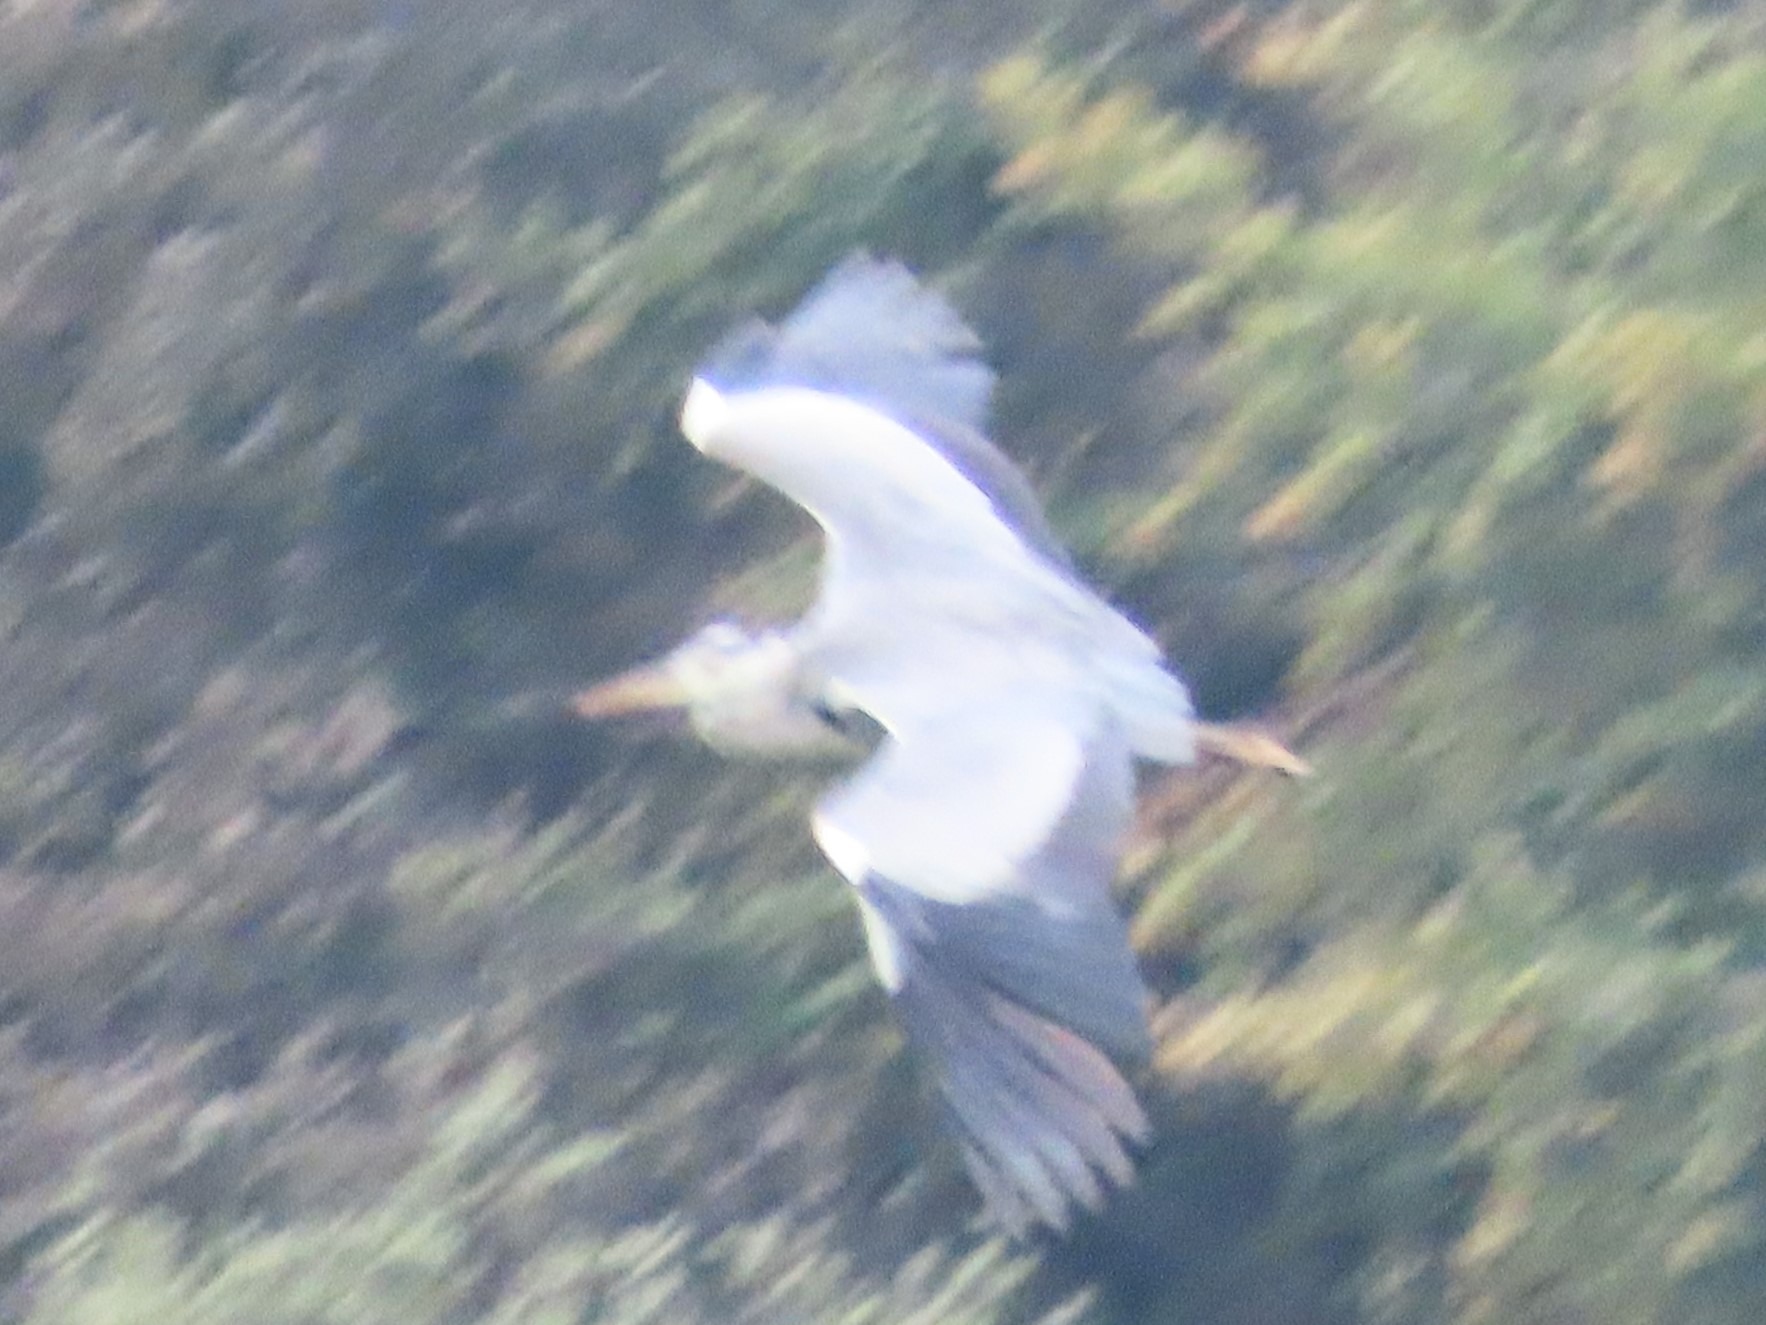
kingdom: Animalia
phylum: Chordata
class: Aves
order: Pelecaniformes
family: Ardeidae
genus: Ardea
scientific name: Ardea cinerea
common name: Fiskehejre
